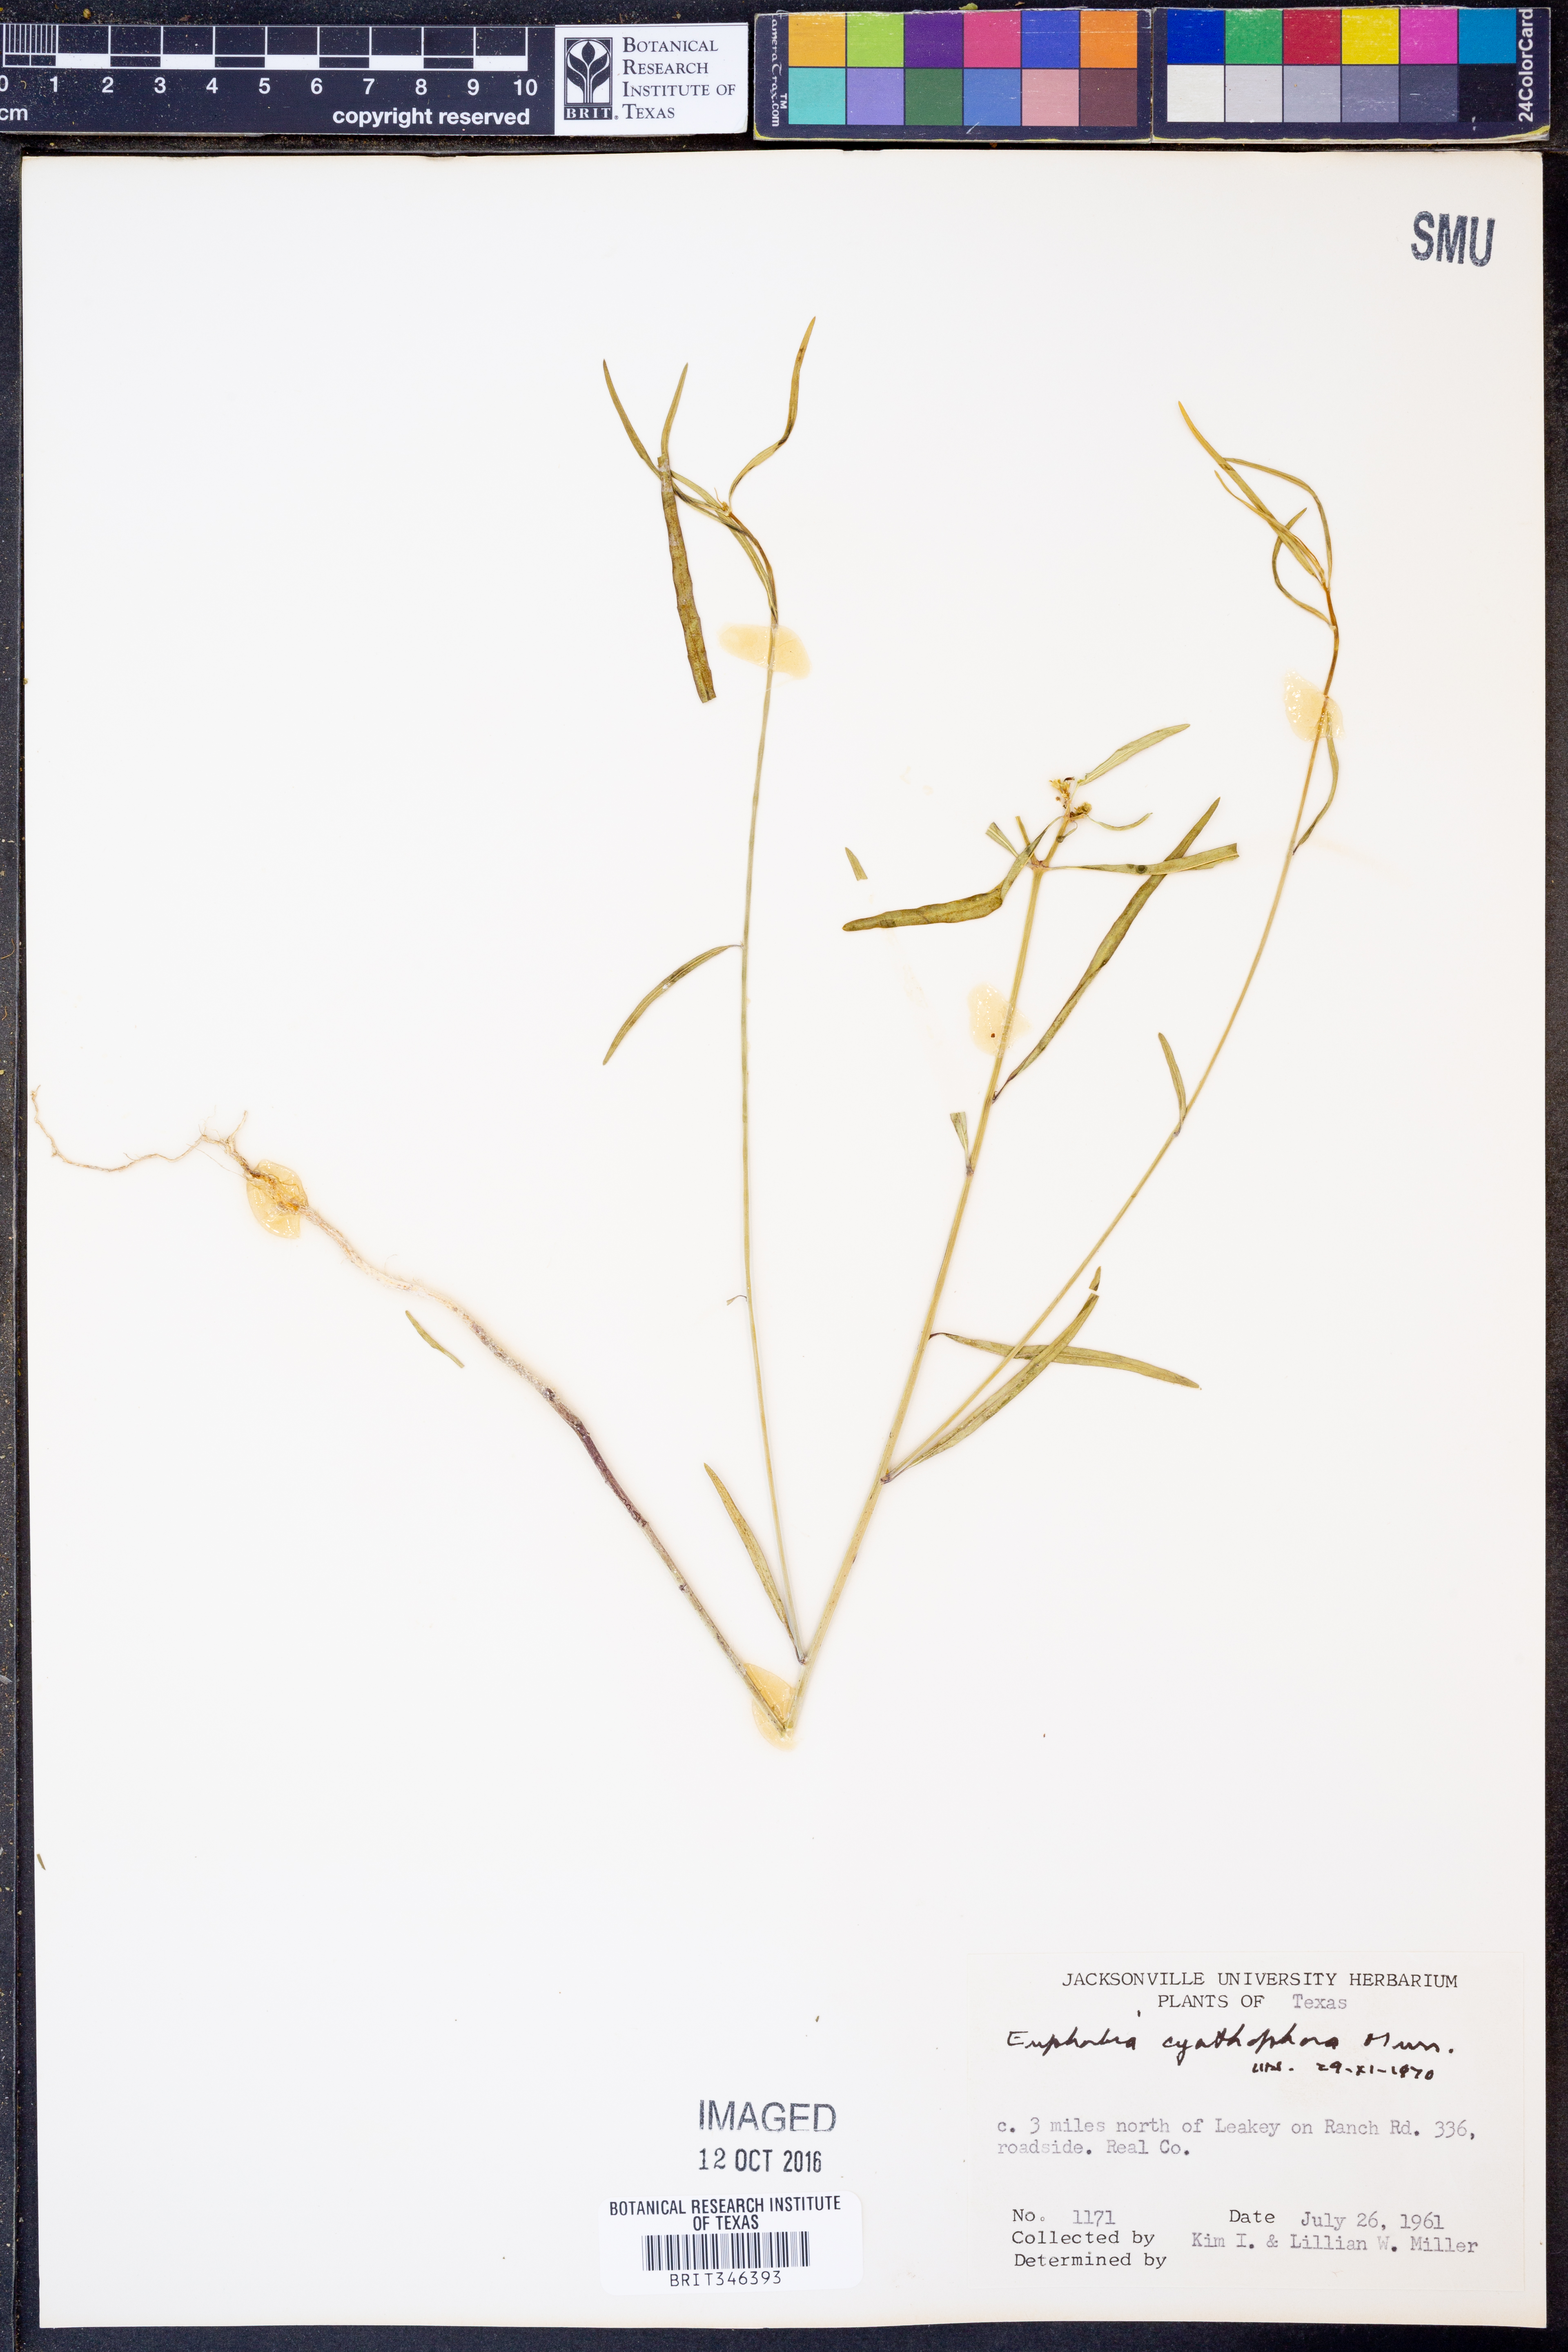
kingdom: Plantae
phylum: Tracheophyta
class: Magnoliopsida
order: Malpighiales
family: Euphorbiaceae
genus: Euphorbia
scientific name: Euphorbia heterophylla
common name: Mexican fireplant
